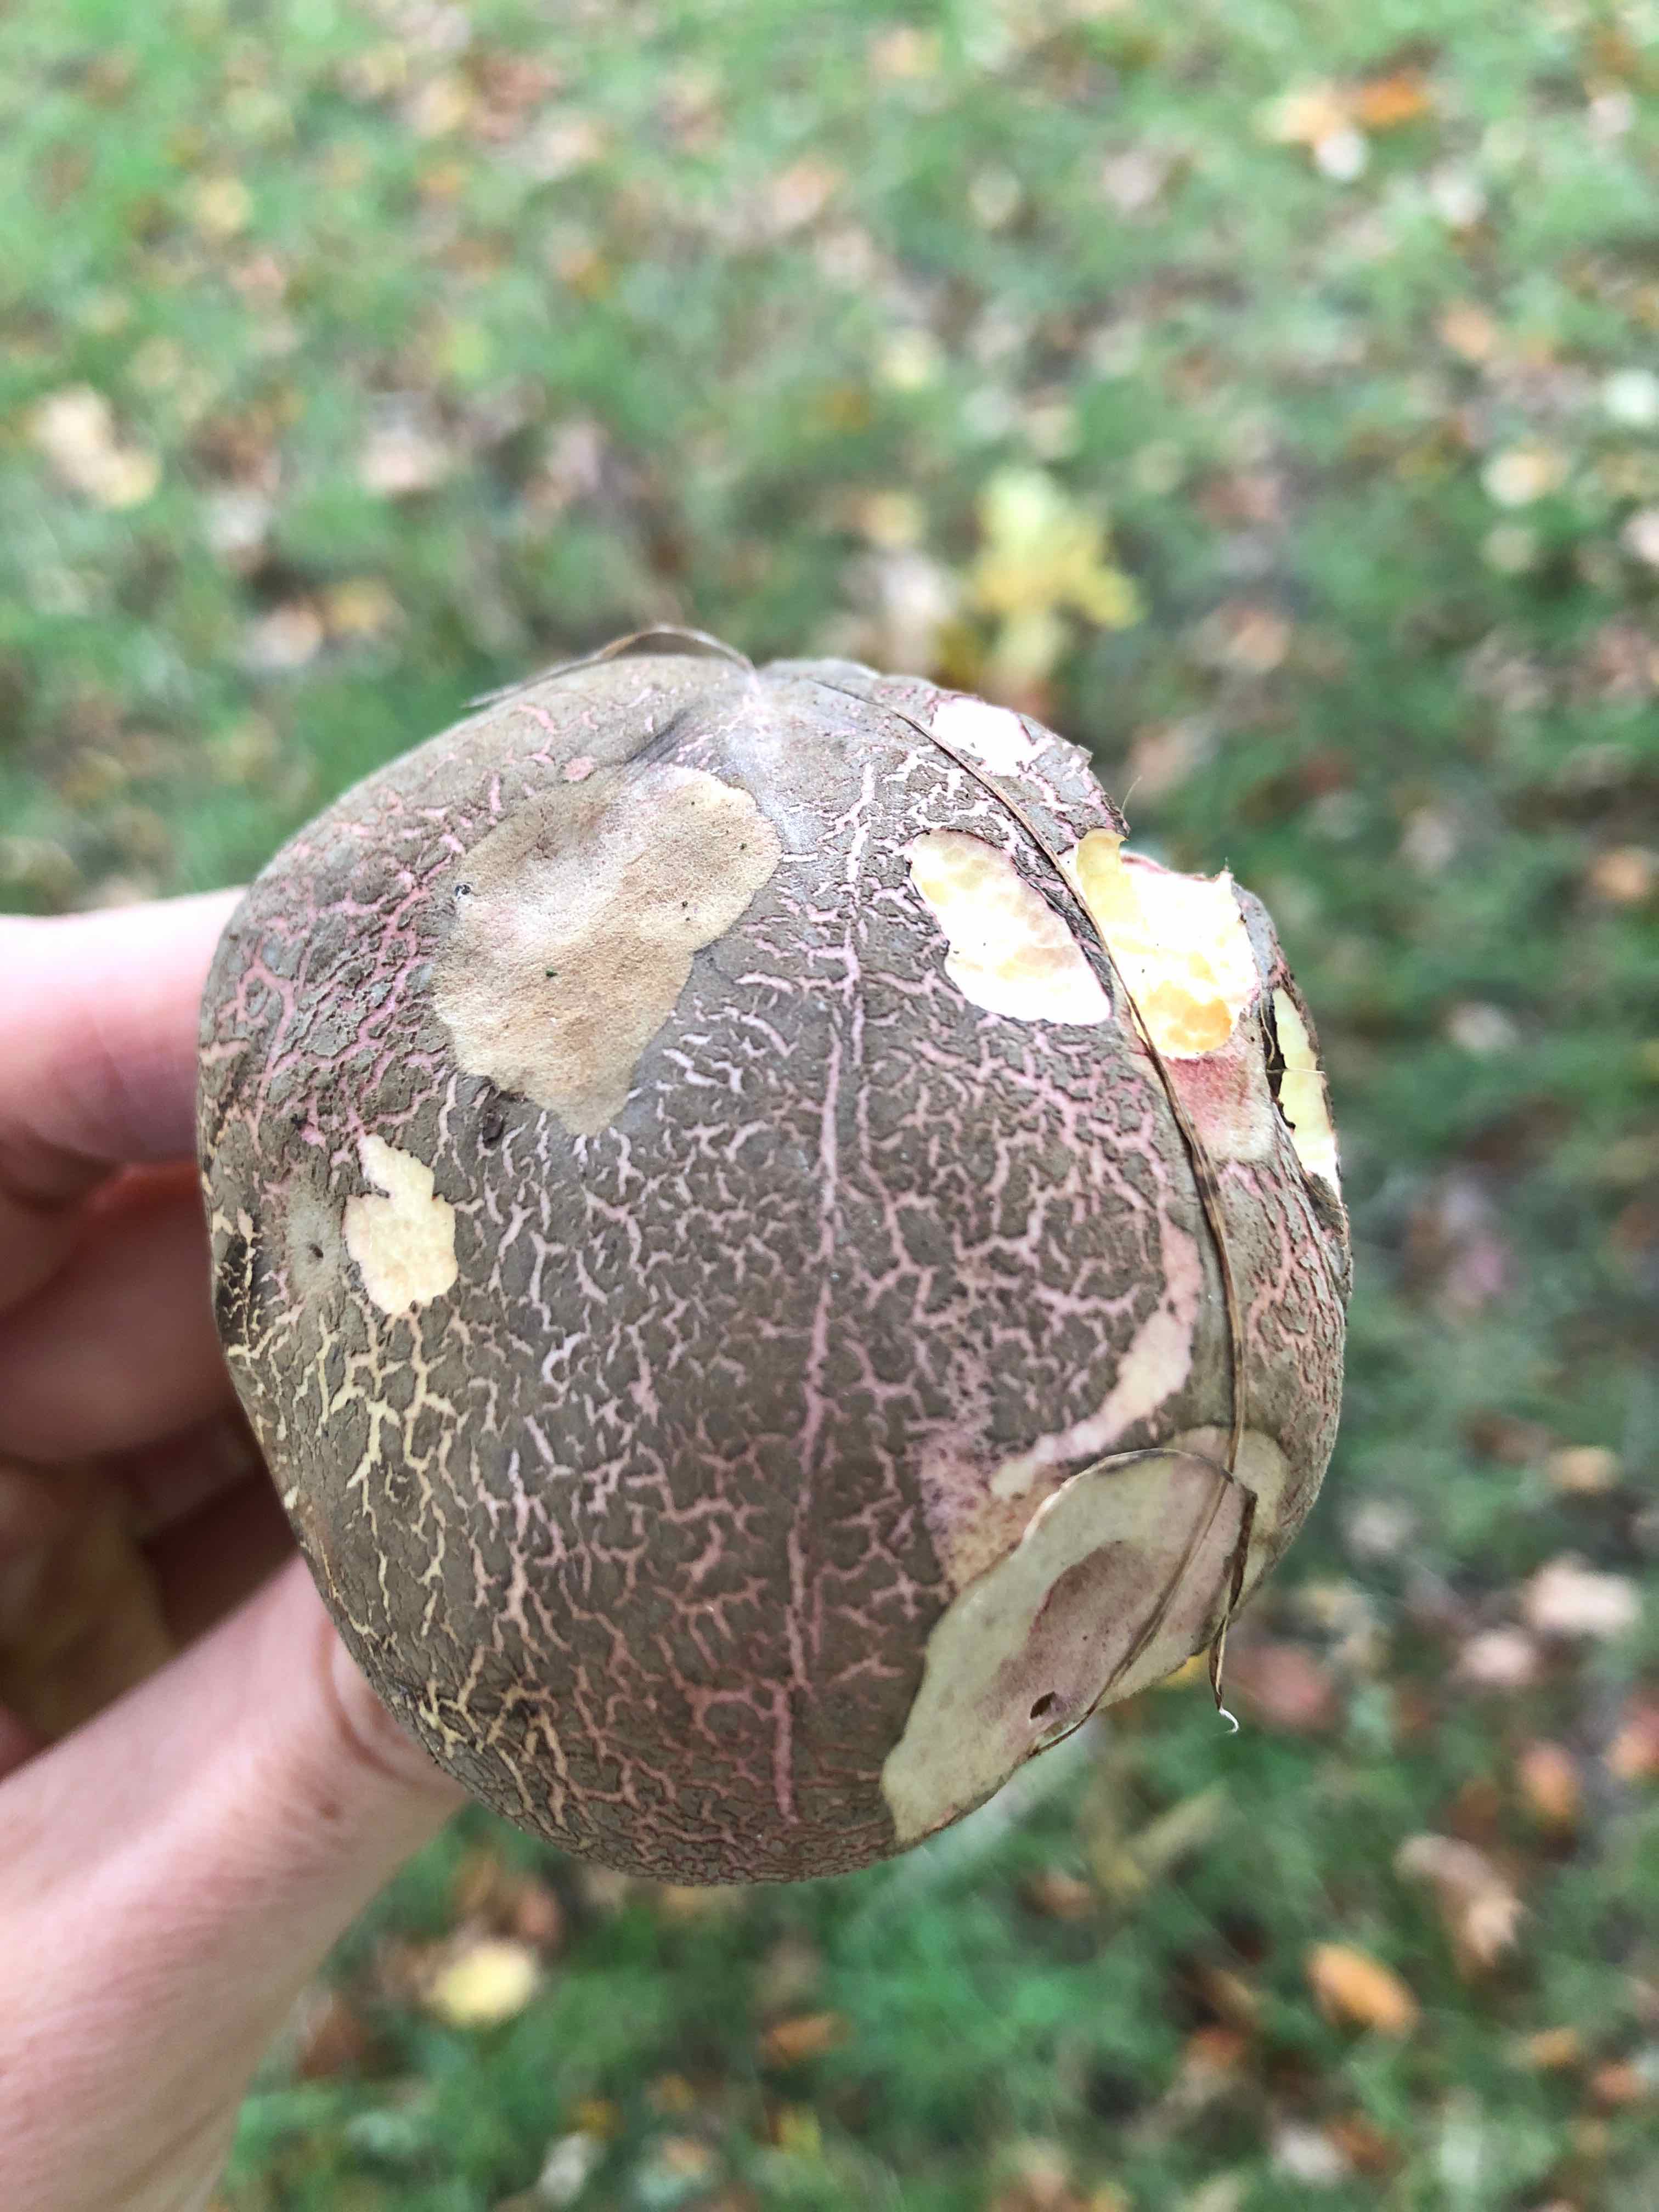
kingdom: Fungi
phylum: Basidiomycota
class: Agaricomycetes
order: Boletales
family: Boletaceae
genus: Xerocomellus
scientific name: Xerocomellus cisalpinus
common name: finsprukken rørhat
